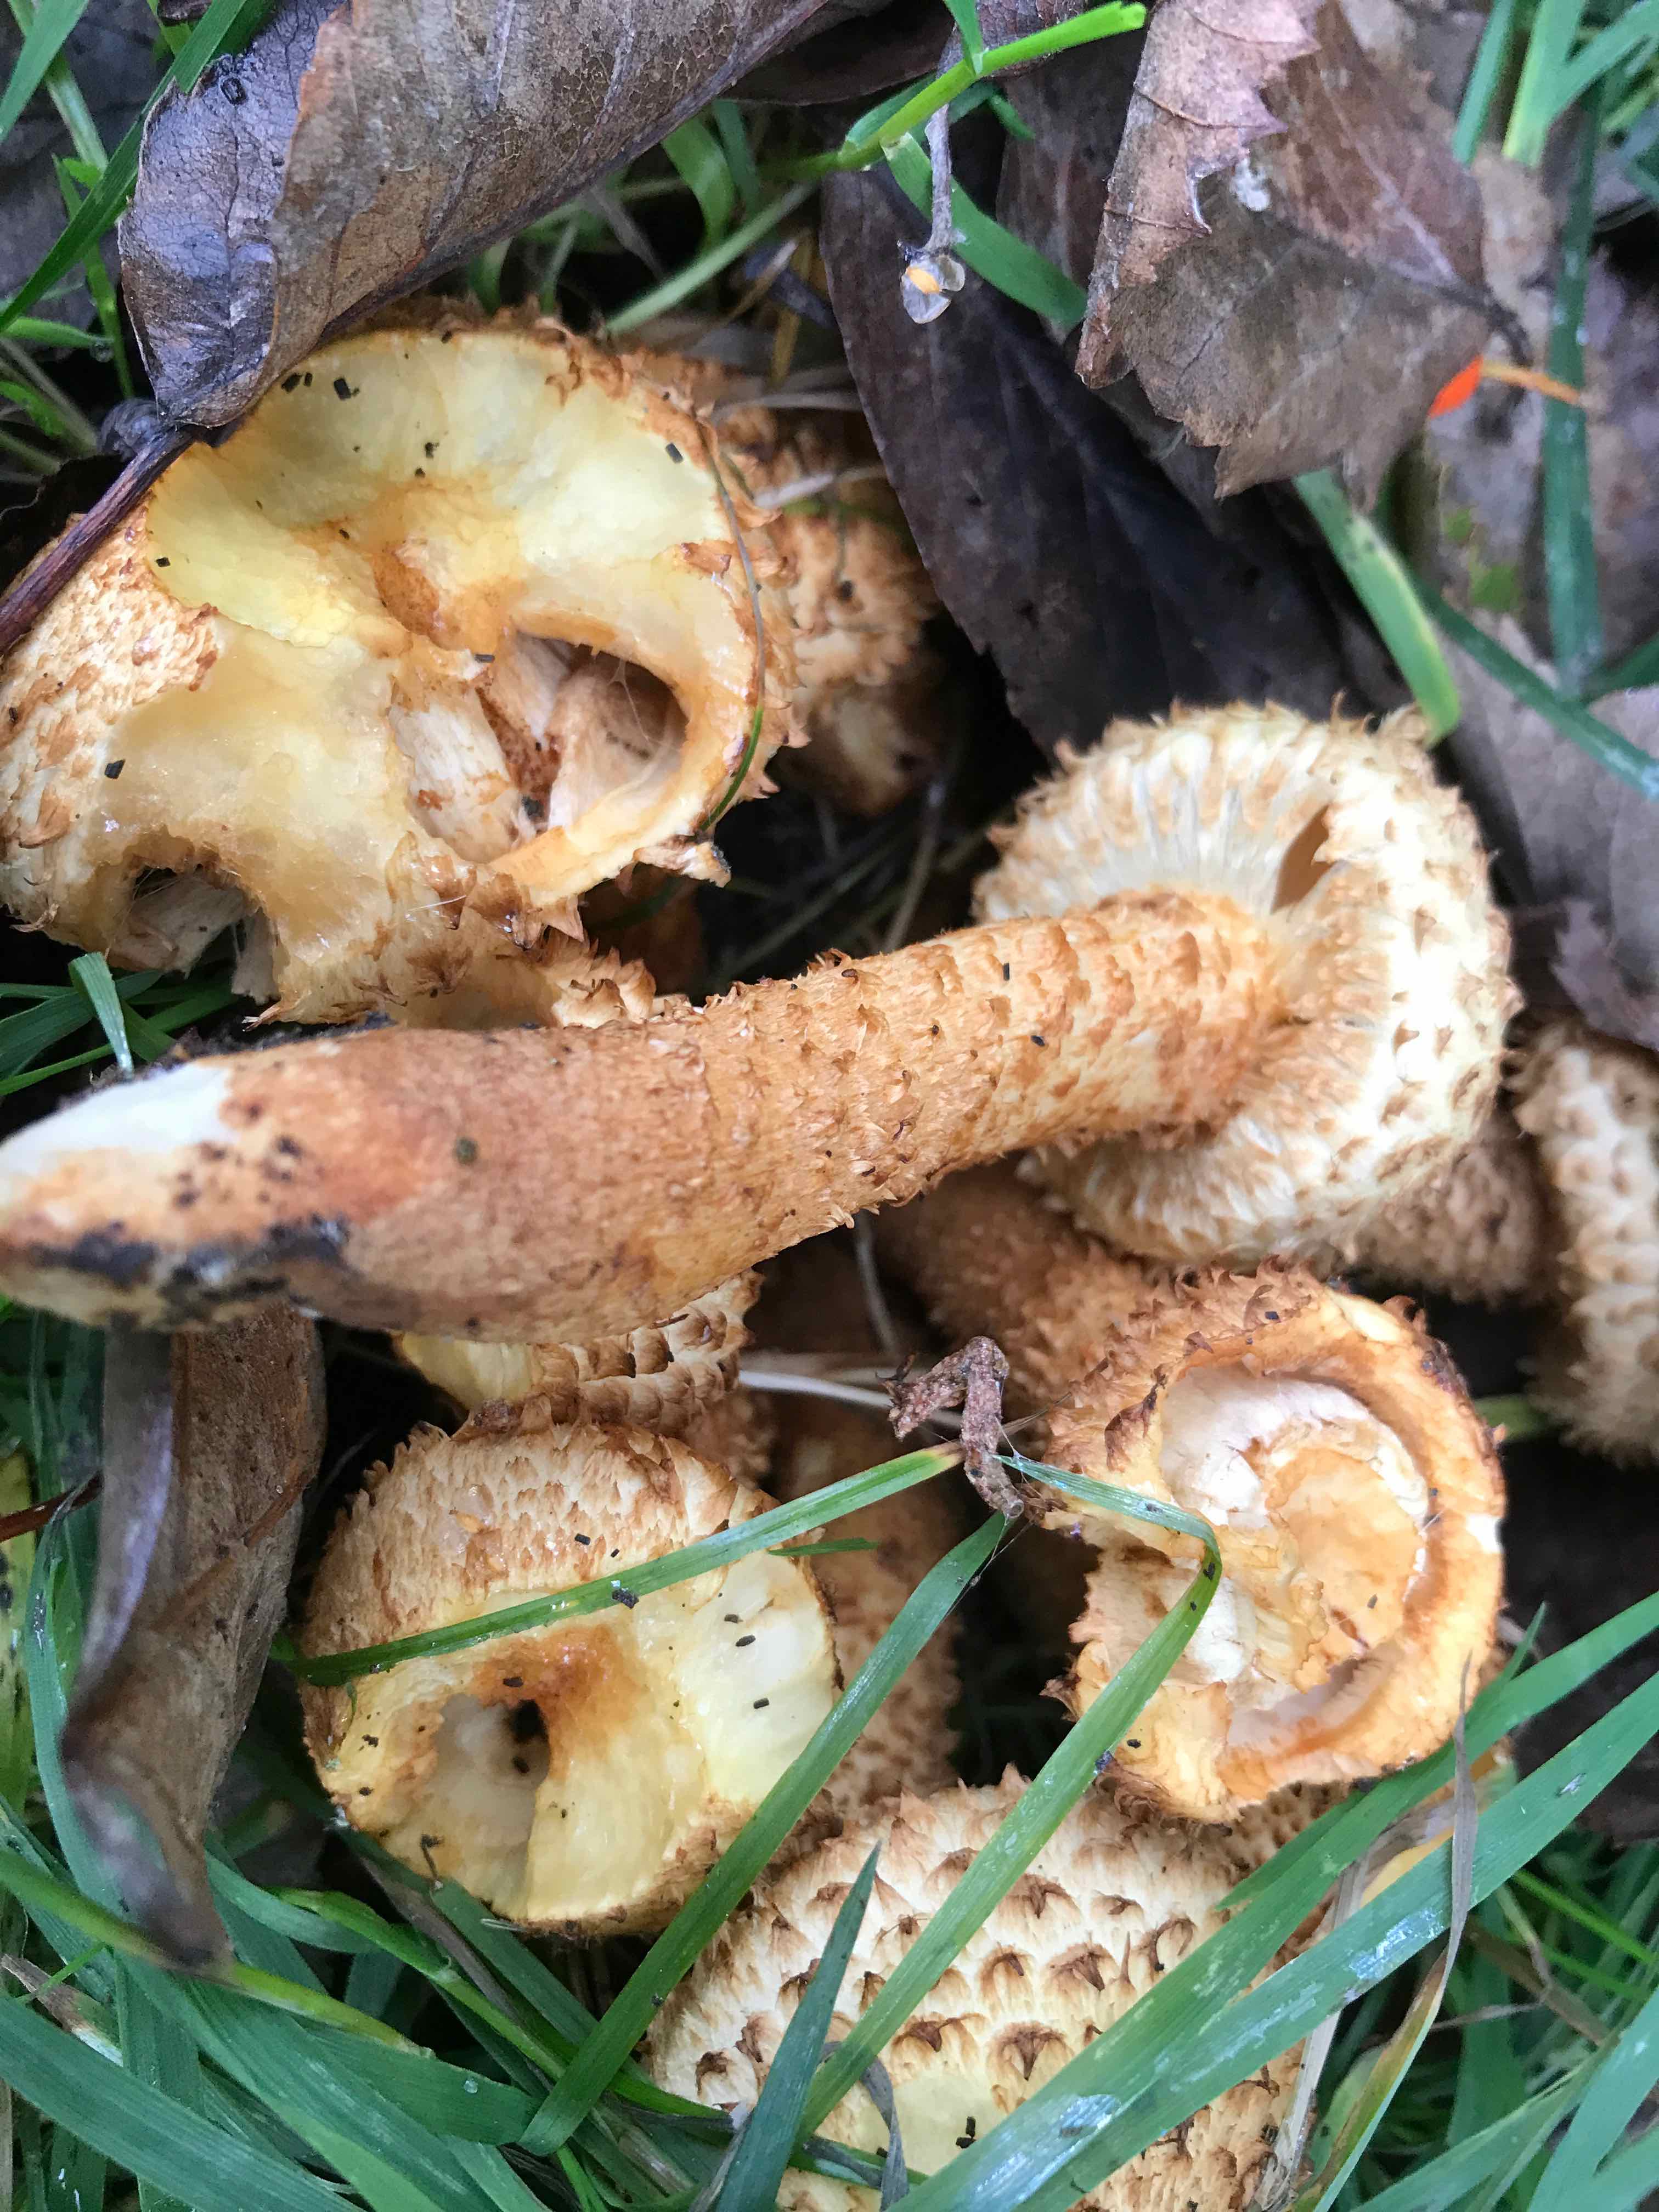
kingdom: Fungi
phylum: Basidiomycota
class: Agaricomycetes
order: Agaricales
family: Strophariaceae
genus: Pholiota
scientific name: Pholiota squarrosa
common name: krumskællet skælhat
